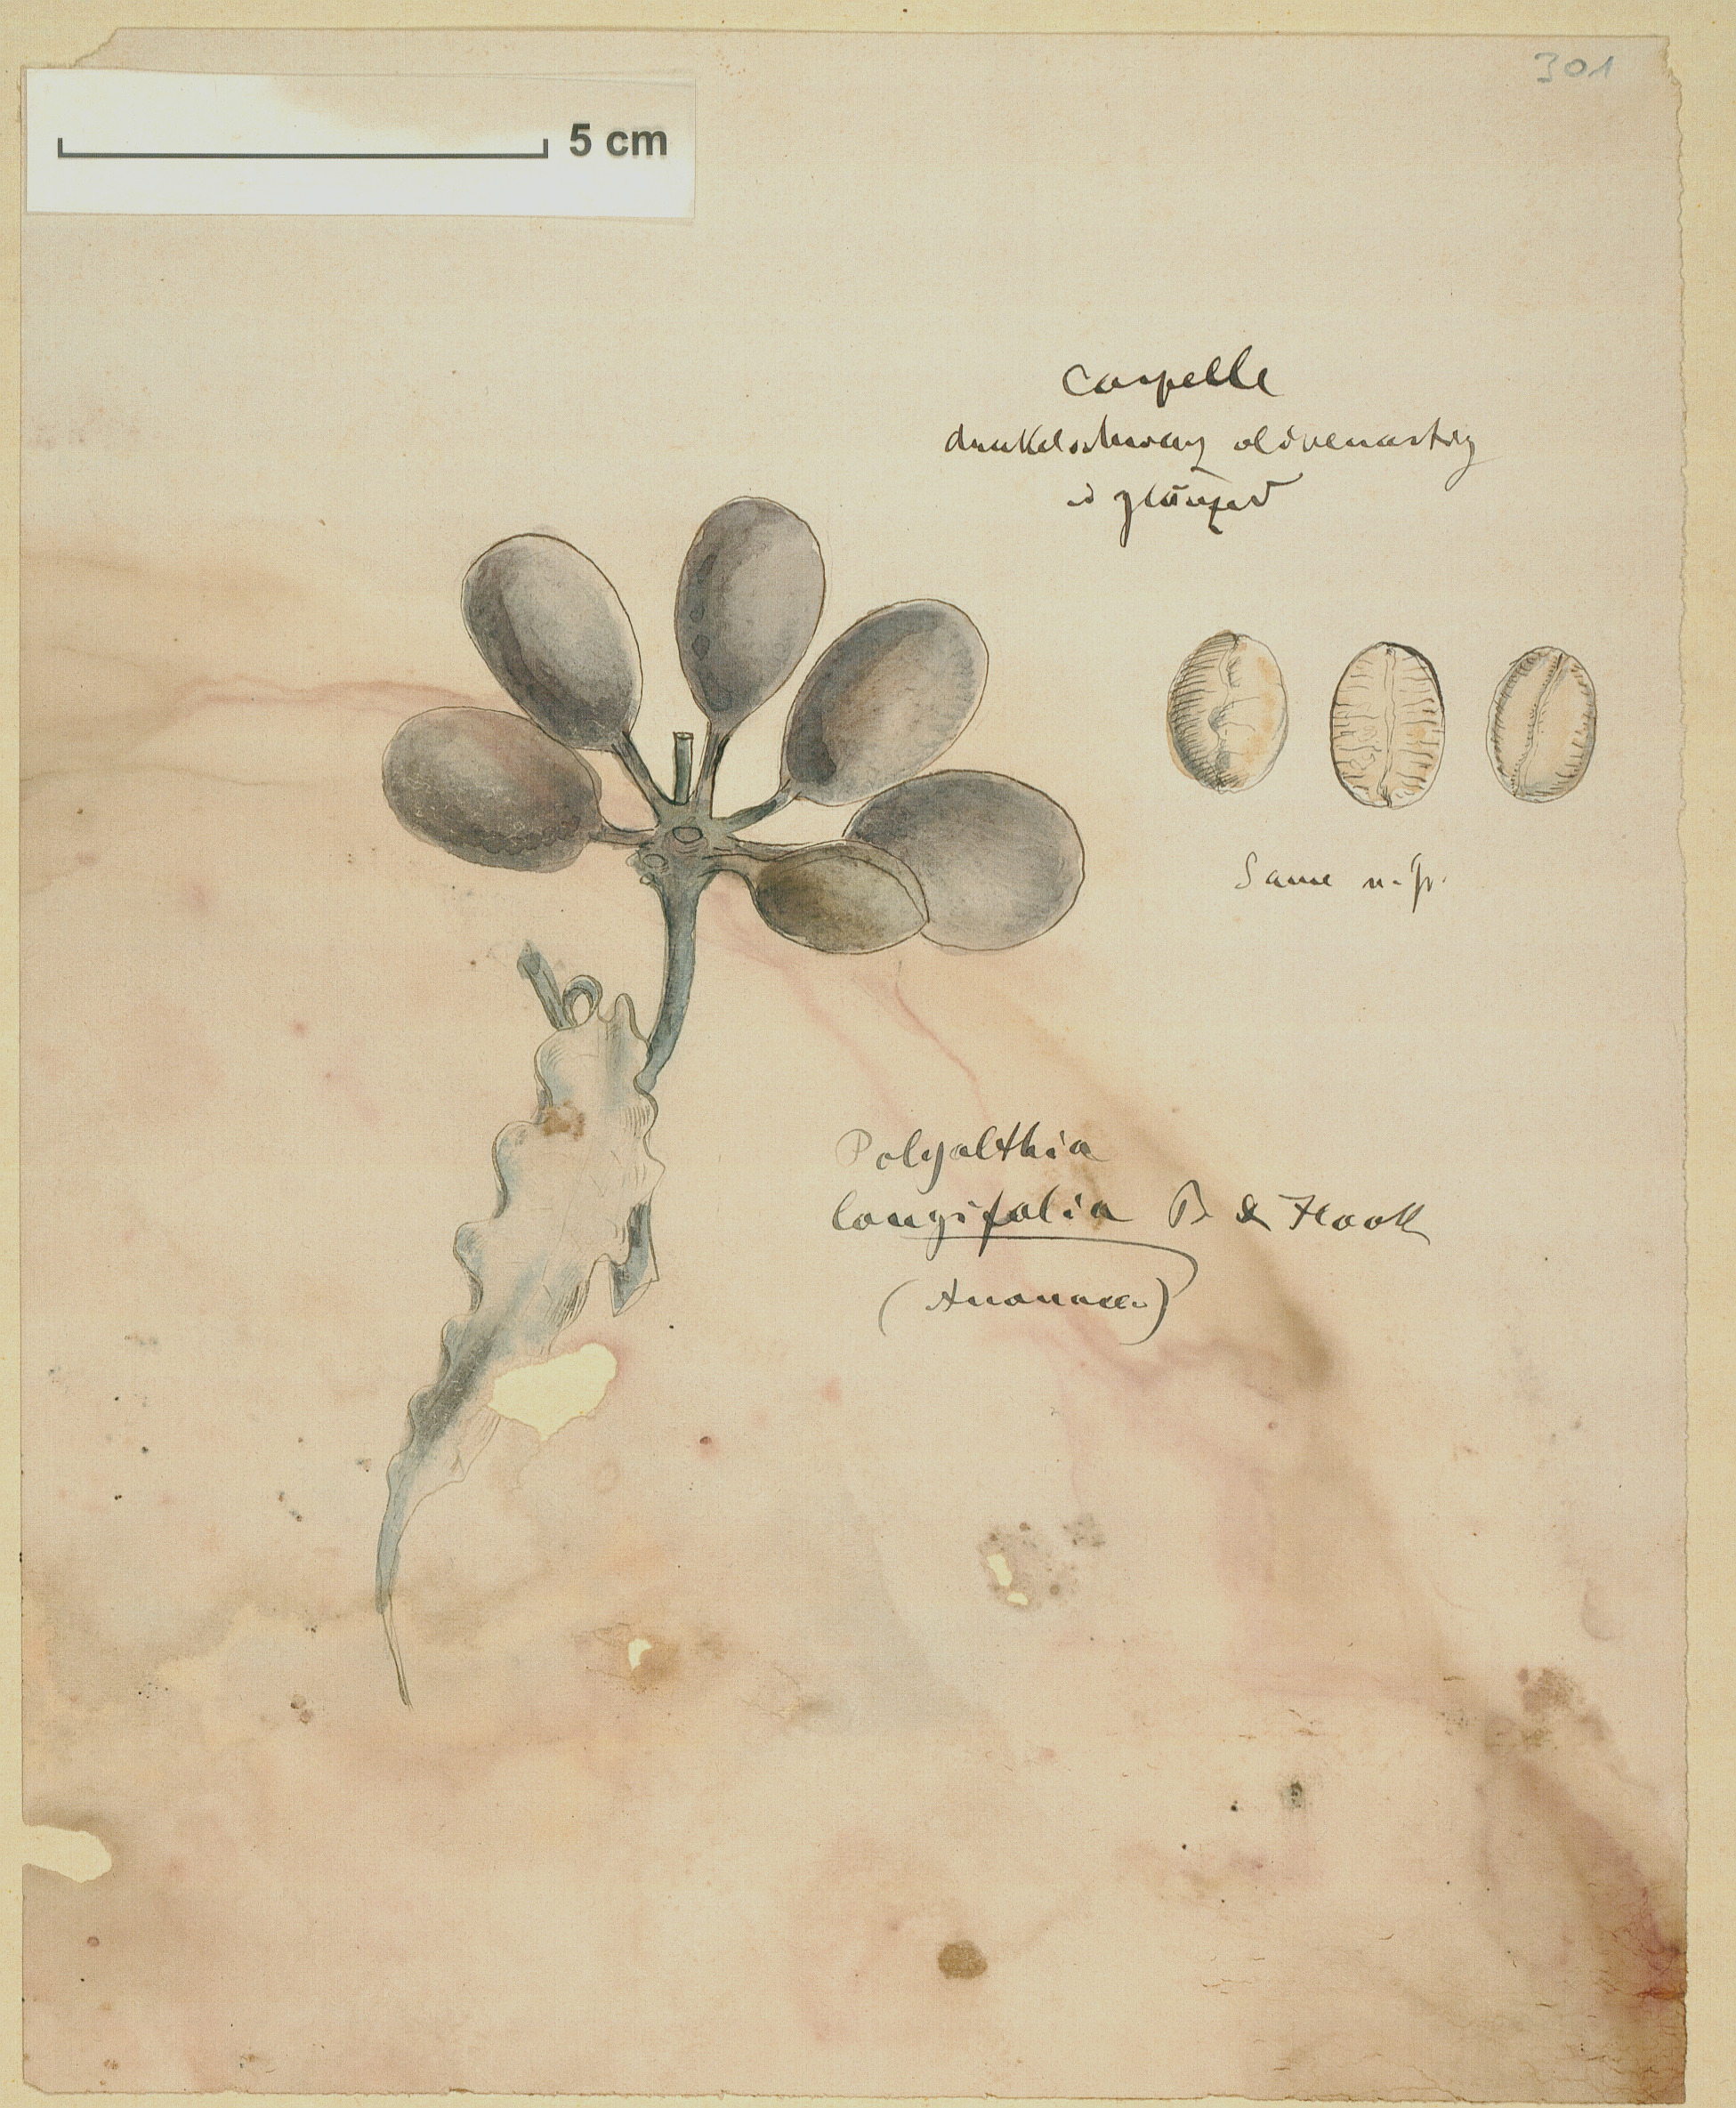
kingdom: Plantae
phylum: Tracheophyta
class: Magnoliopsida
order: Magnoliales
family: Annonaceae
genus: Polyalthia
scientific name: Polyalthia longifolia
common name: Cemetery-tree
